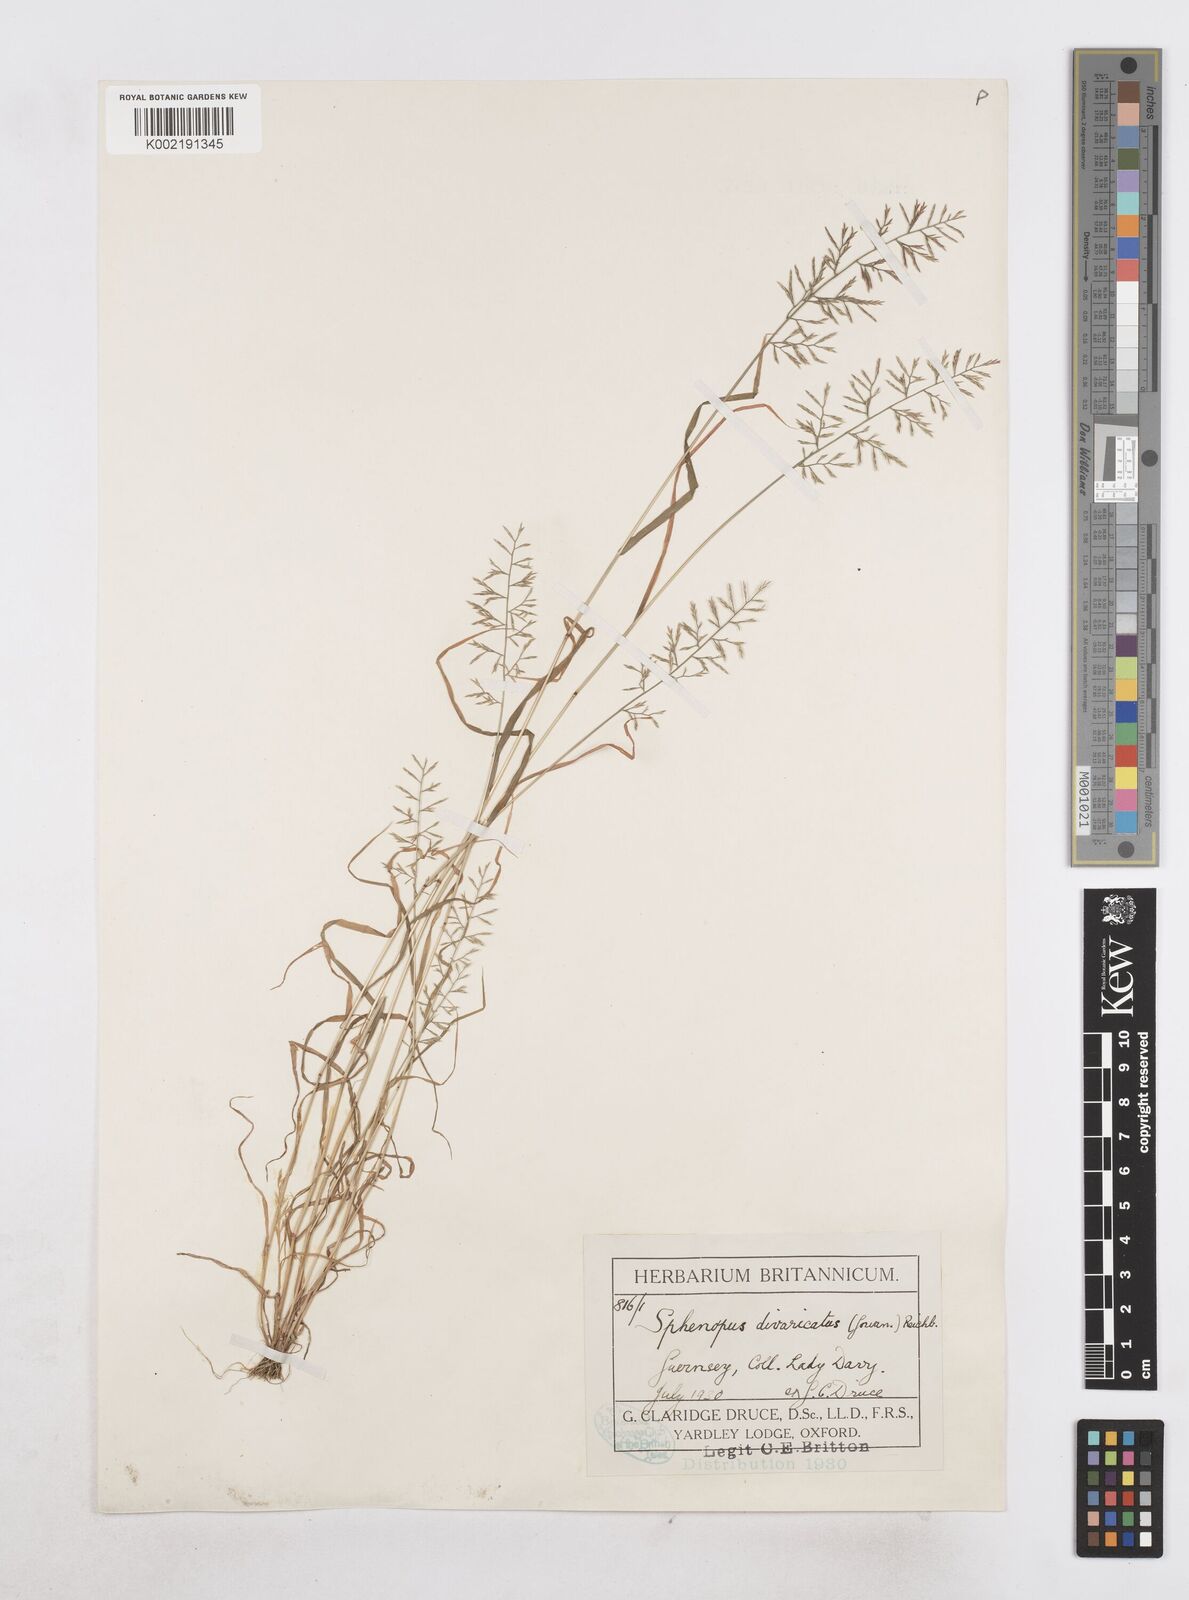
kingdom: Plantae
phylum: Tracheophyta
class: Liliopsida
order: Poales
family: Poaceae
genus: Catapodium
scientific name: Catapodium rigidum
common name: Fern-grass
